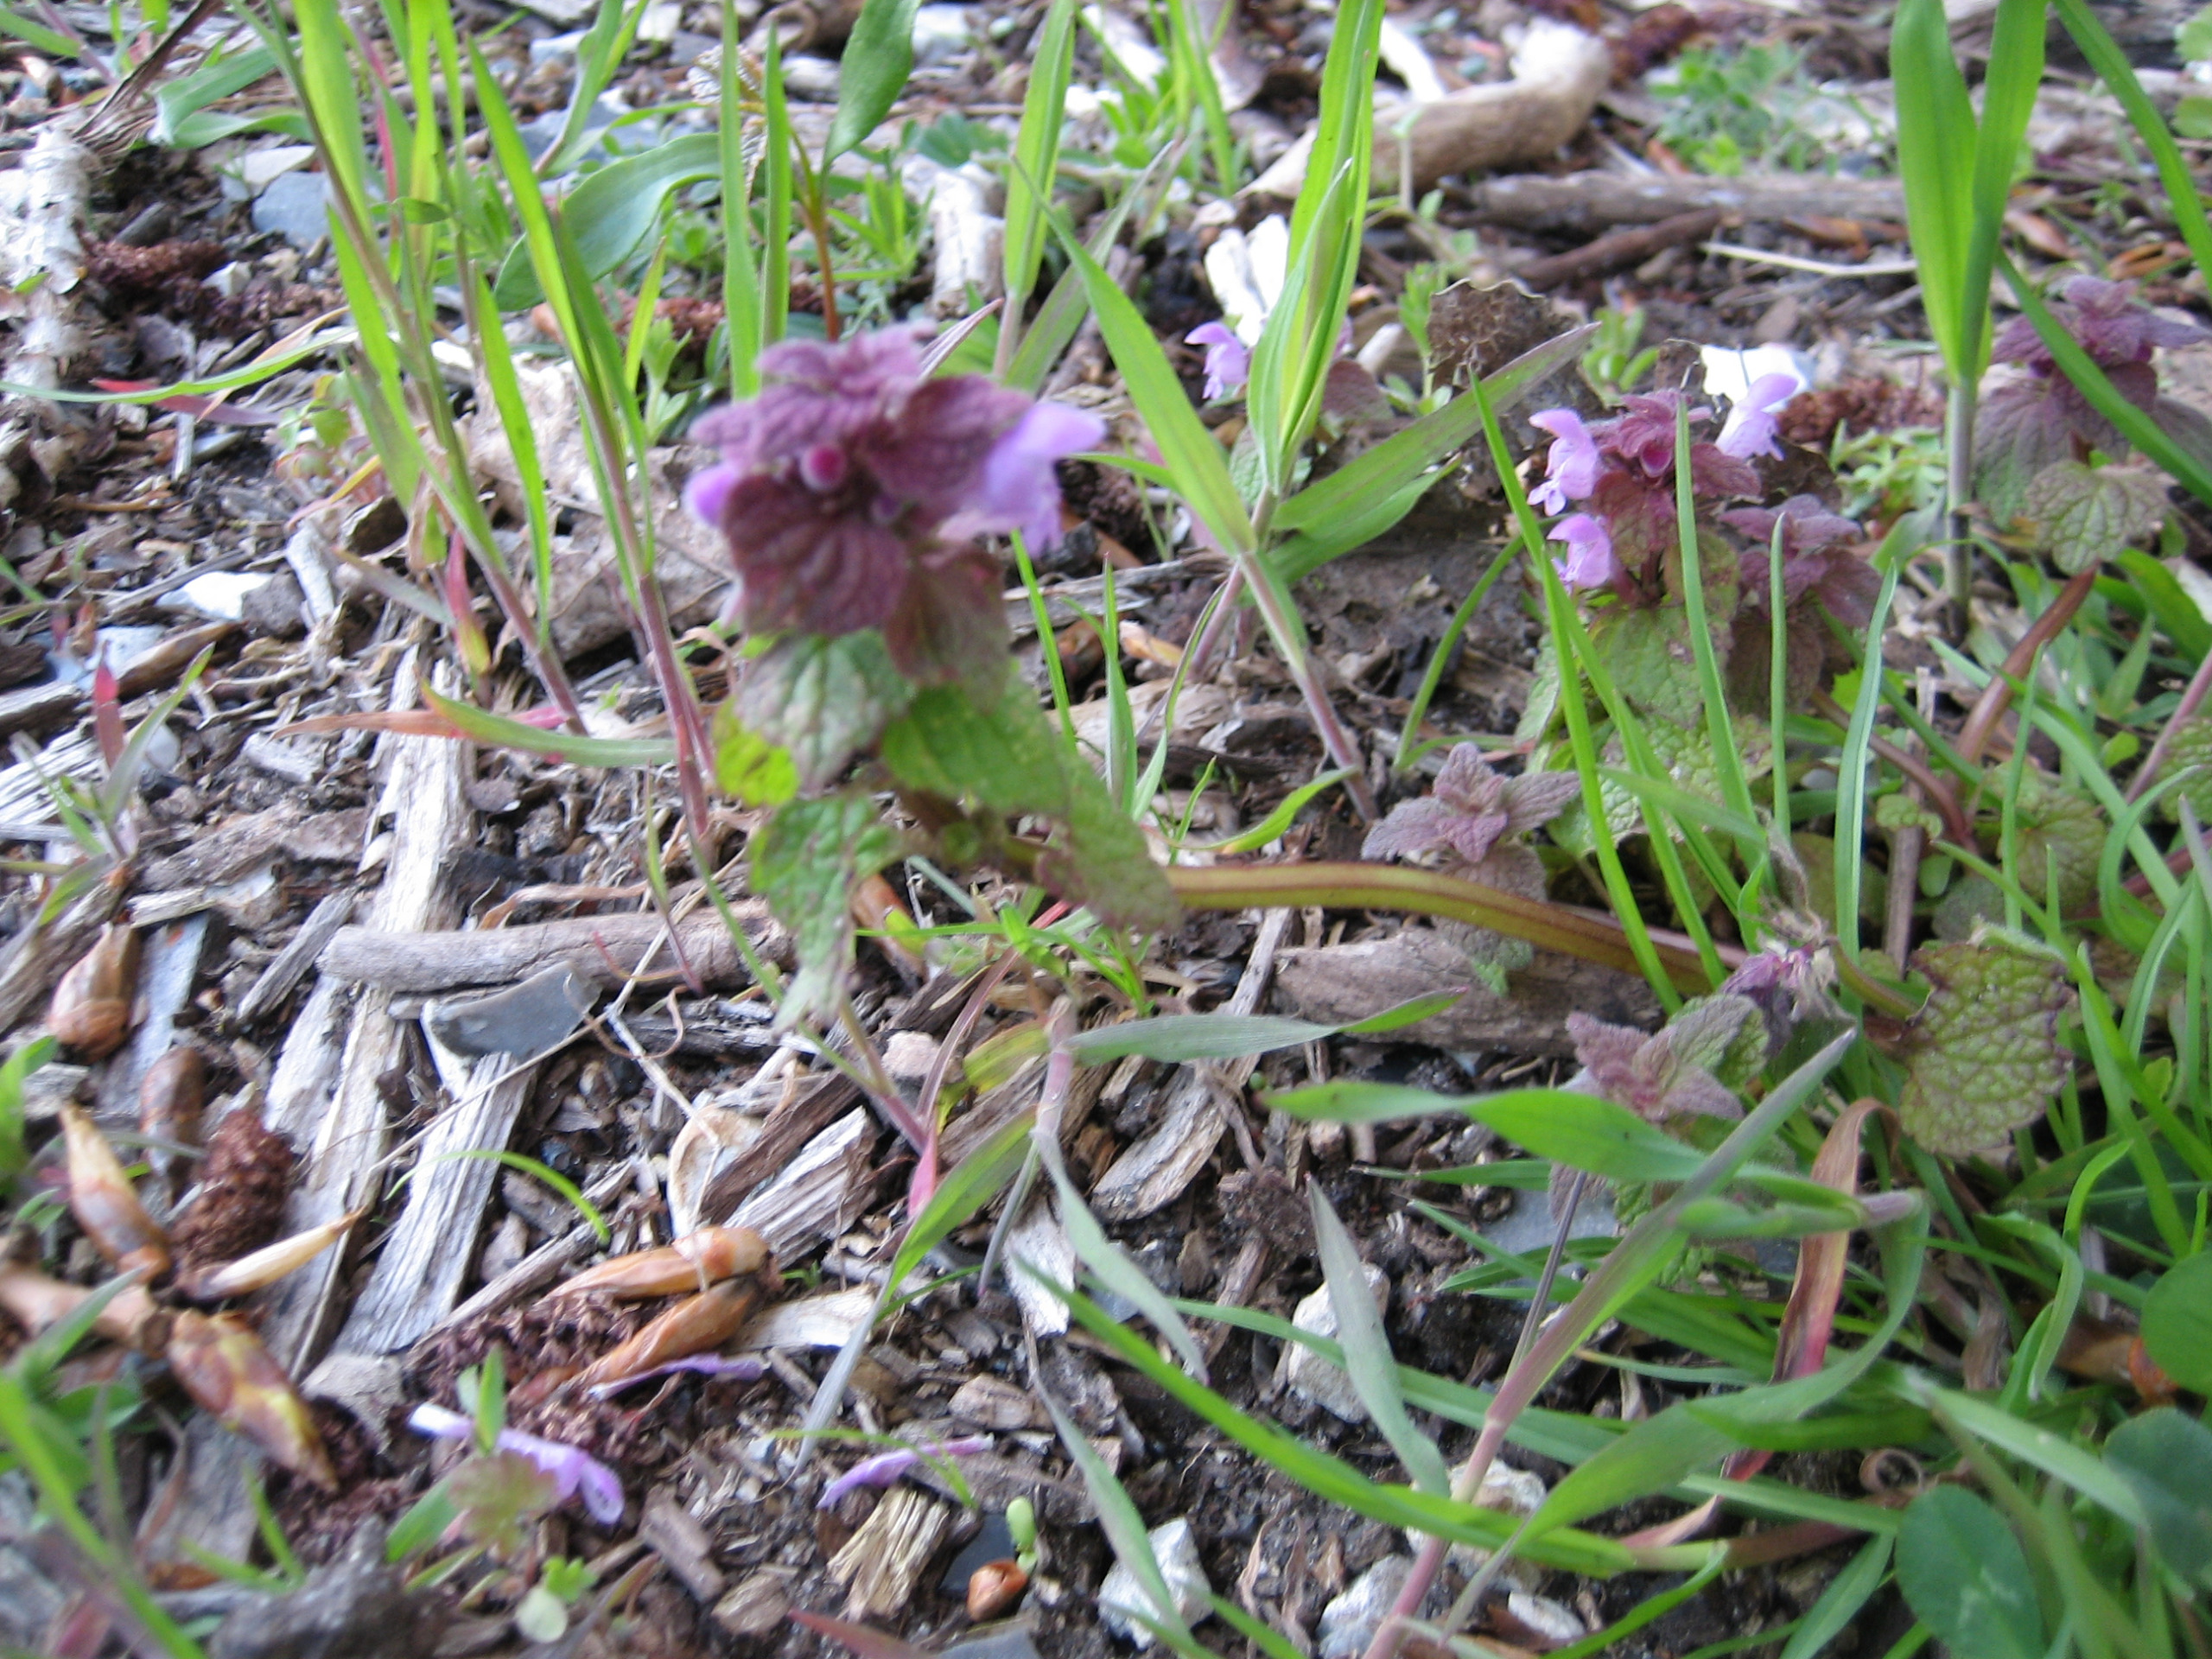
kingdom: Plantae
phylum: Tracheophyta
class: Magnoliopsida
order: Lamiales
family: Lamiaceae
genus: Lamium
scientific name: Lamium purpureum
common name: Rød tvetand
